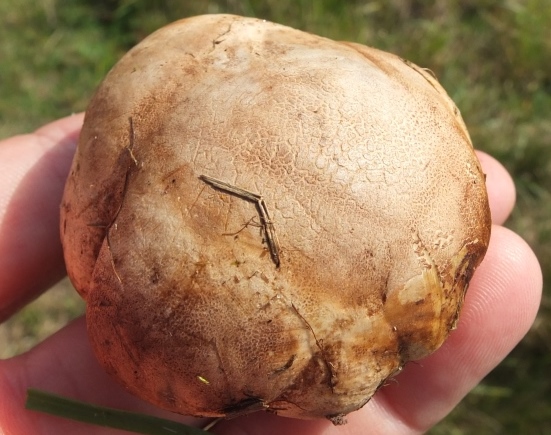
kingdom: Fungi
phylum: Basidiomycota
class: Agaricomycetes
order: Boletales
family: Sclerodermataceae
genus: Scleroderma
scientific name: Scleroderma bovista
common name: bovist-bruskbold
